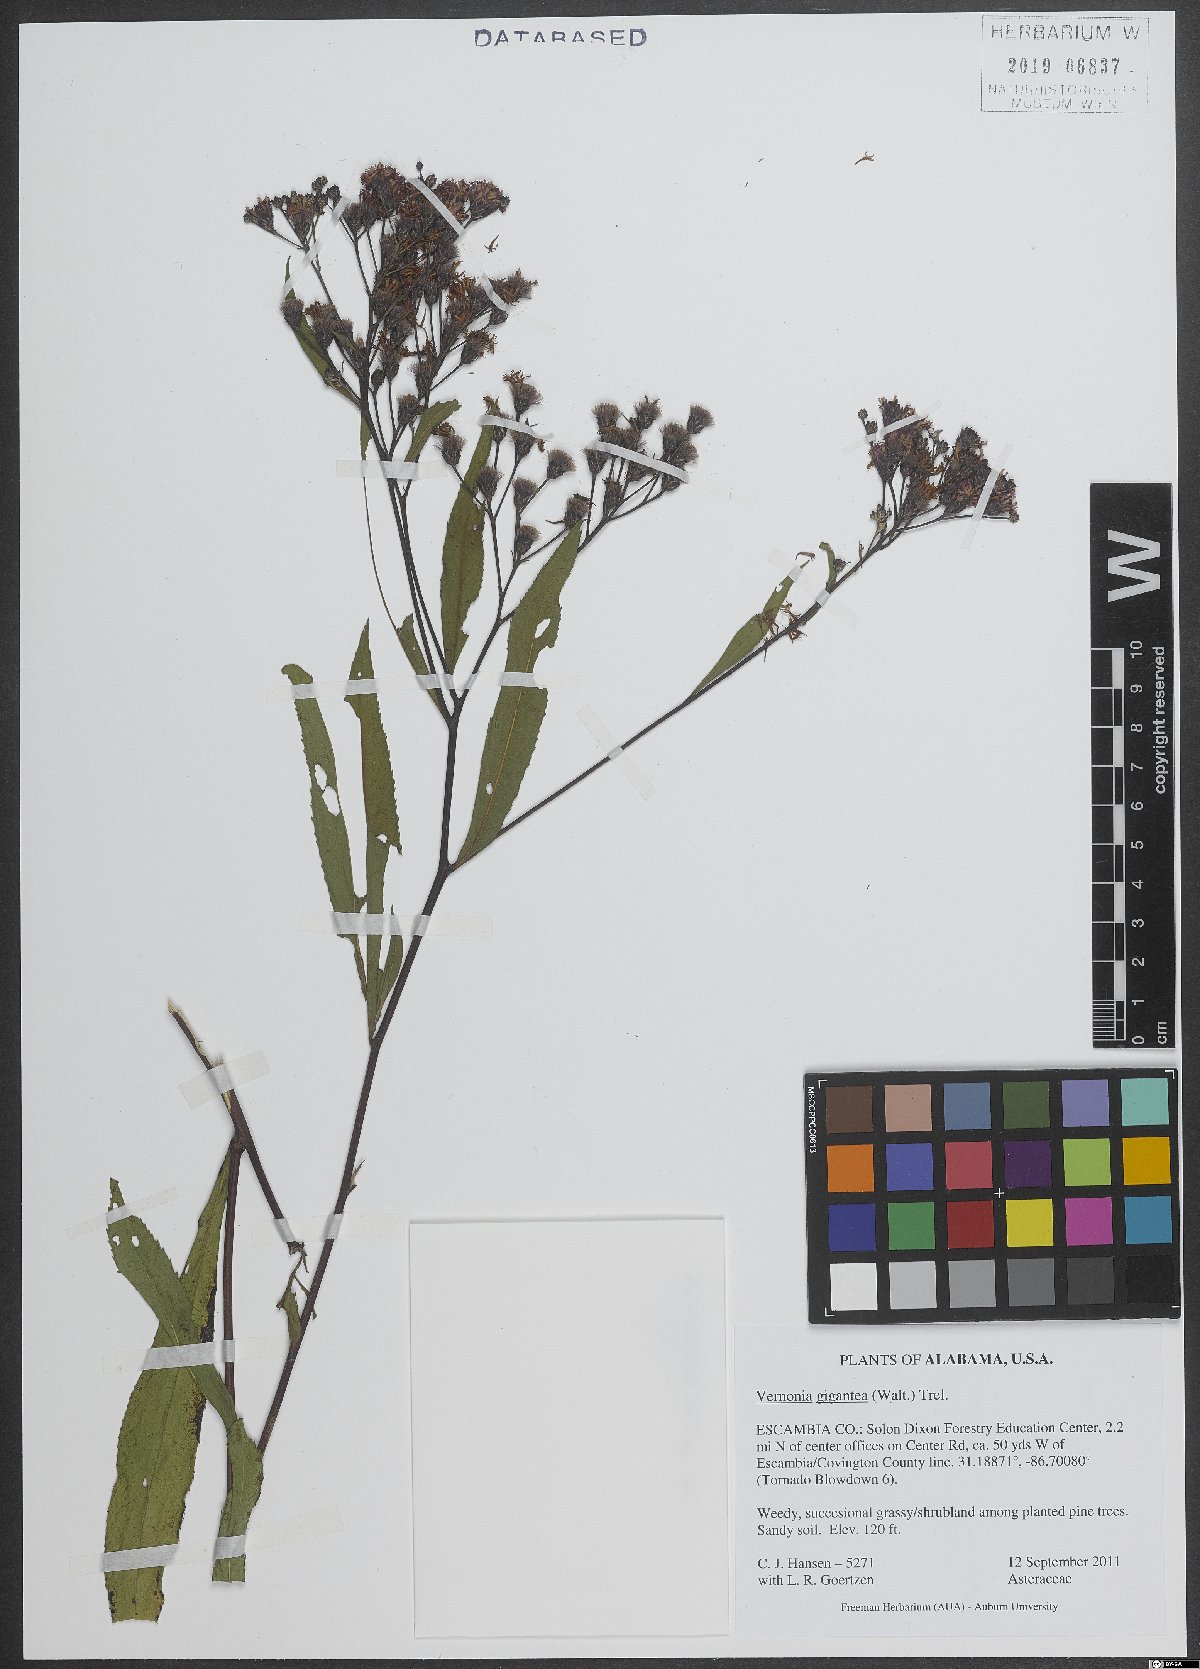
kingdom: Plantae
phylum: Tracheophyta
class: Magnoliopsida
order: Asterales
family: Asteraceae
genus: Vernonia
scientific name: Vernonia gigantea
